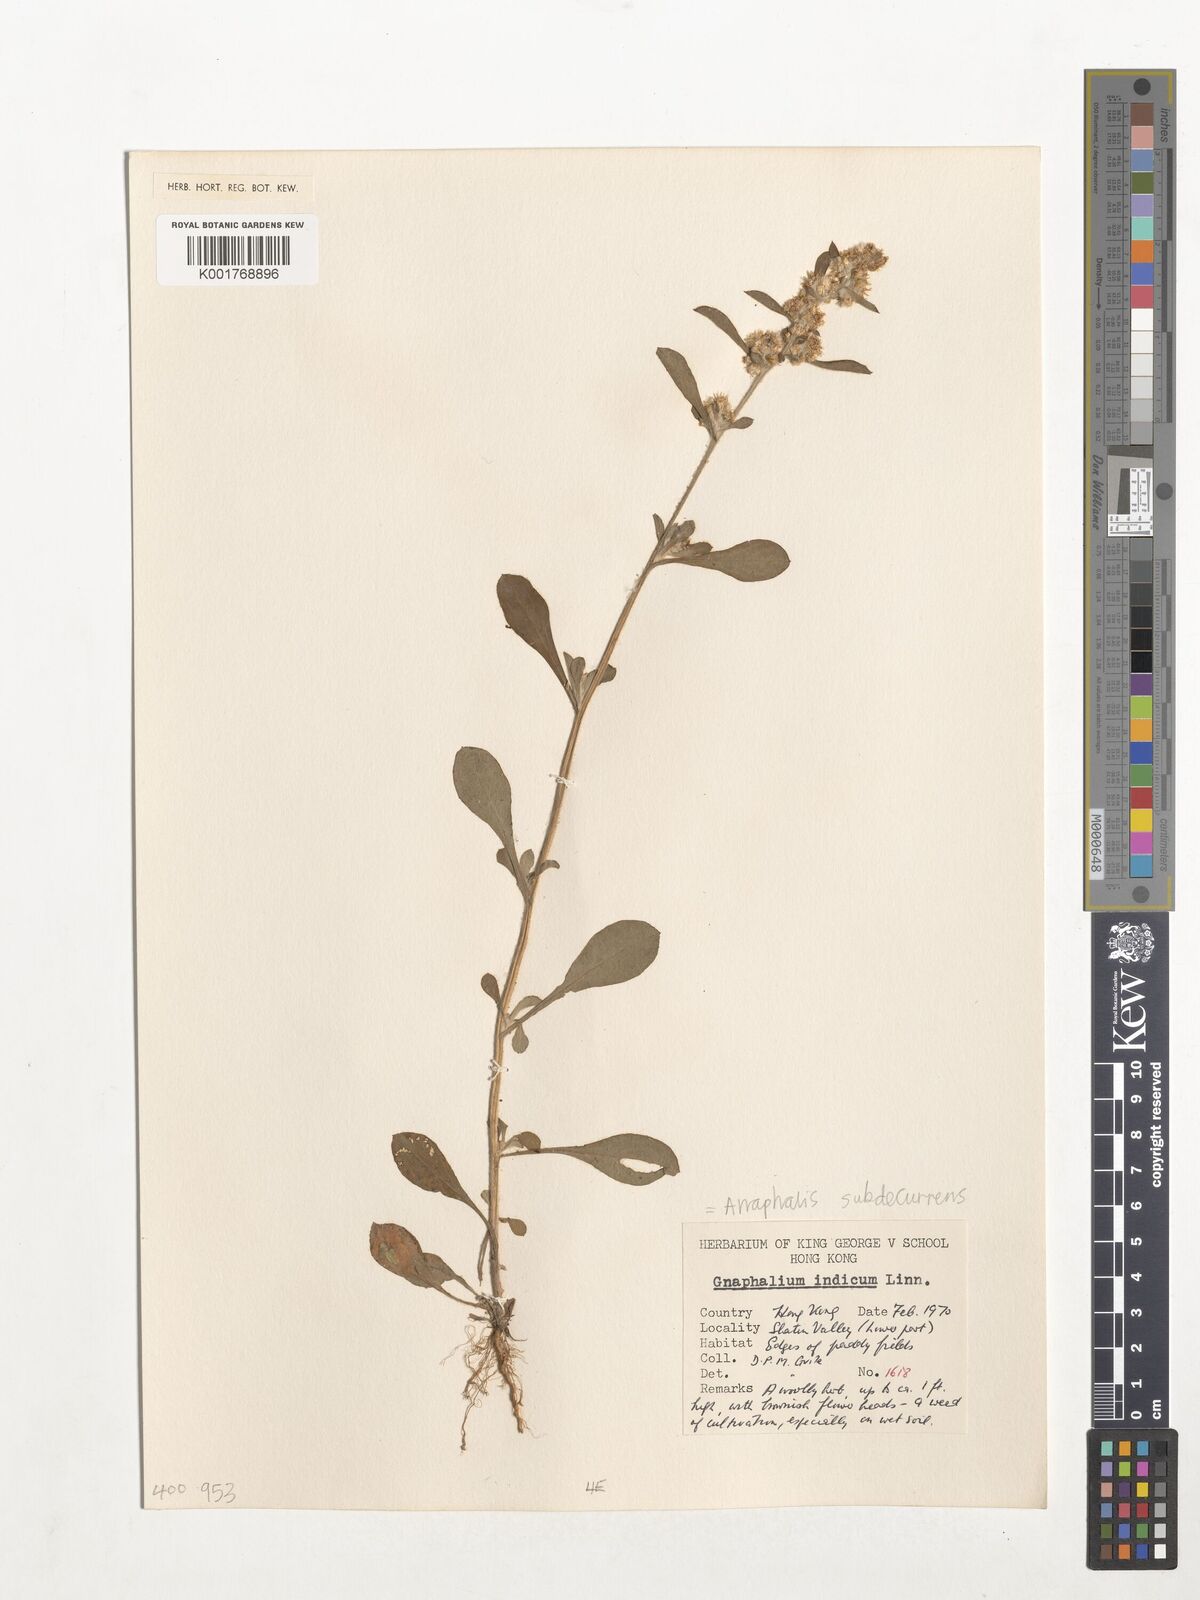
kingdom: Plantae
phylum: Tracheophyta
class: Magnoliopsida
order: Asterales
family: Asteraceae
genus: Helichrysum
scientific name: Helichrysum indicum
